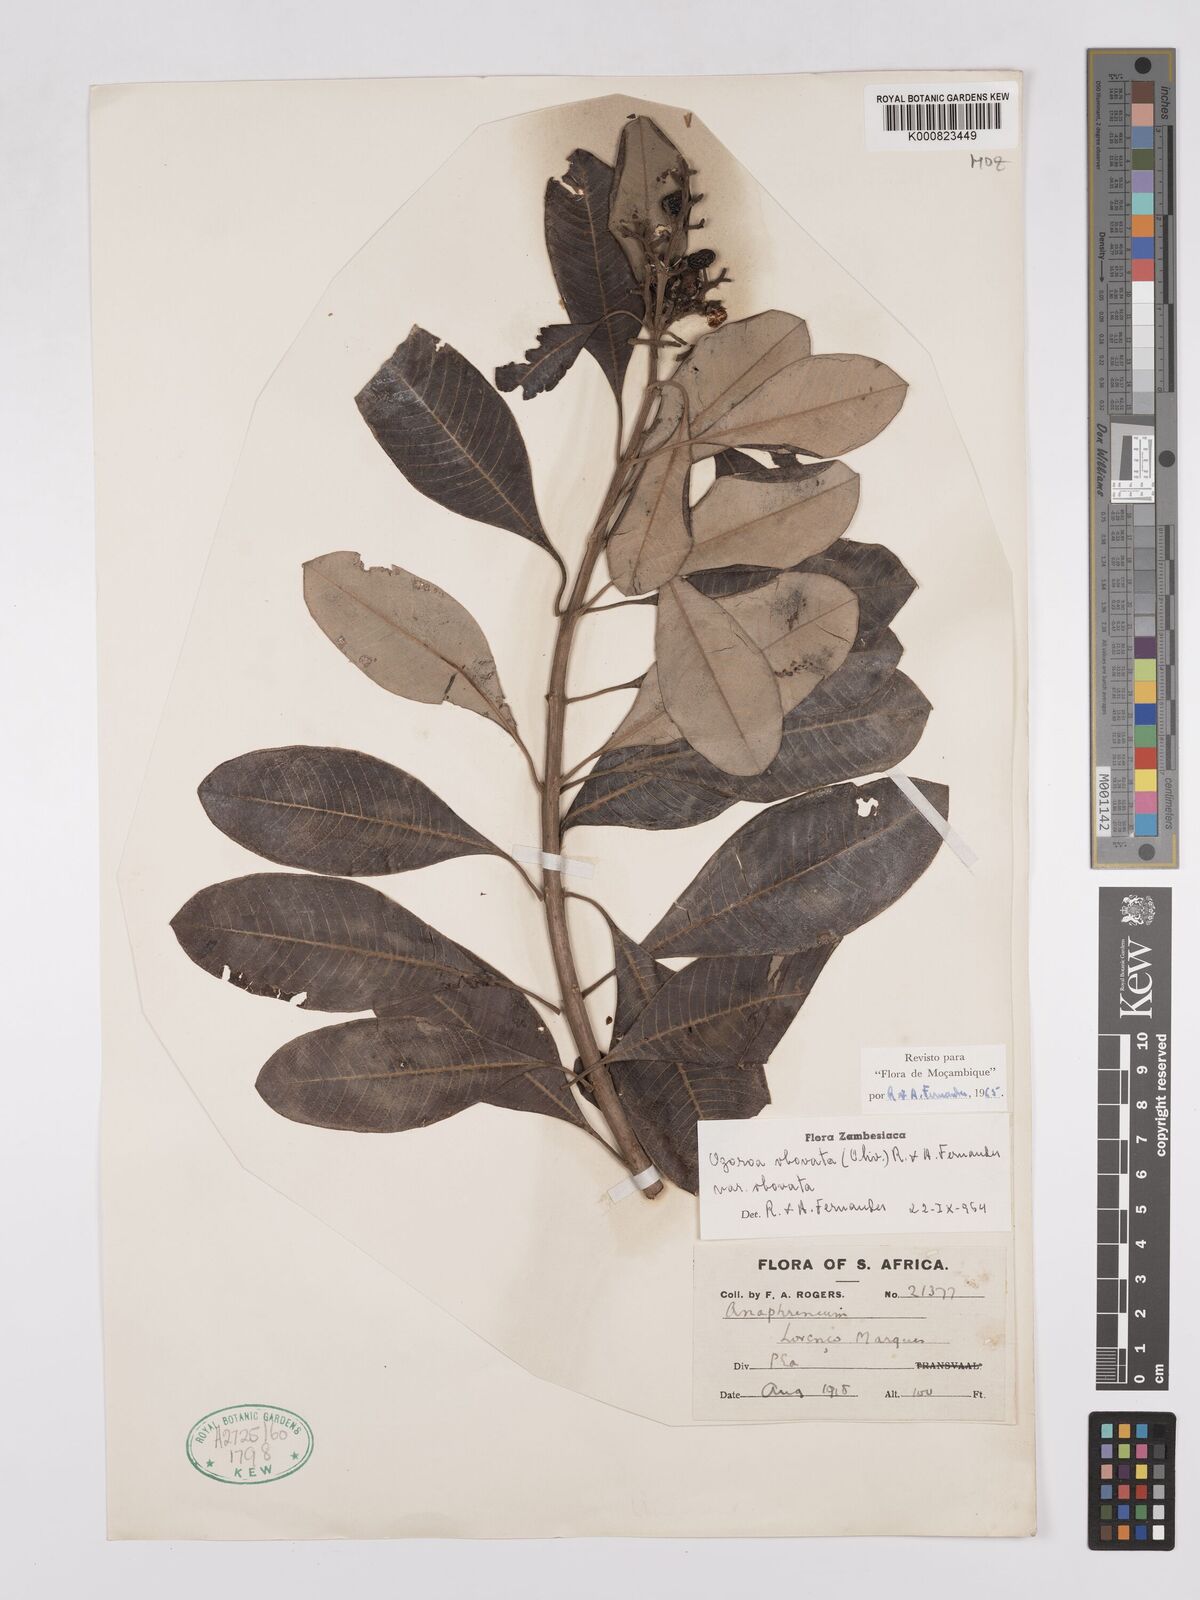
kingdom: Plantae
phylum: Tracheophyta
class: Magnoliopsida
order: Sapindales
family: Anacardiaceae
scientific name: Anacardiaceae
